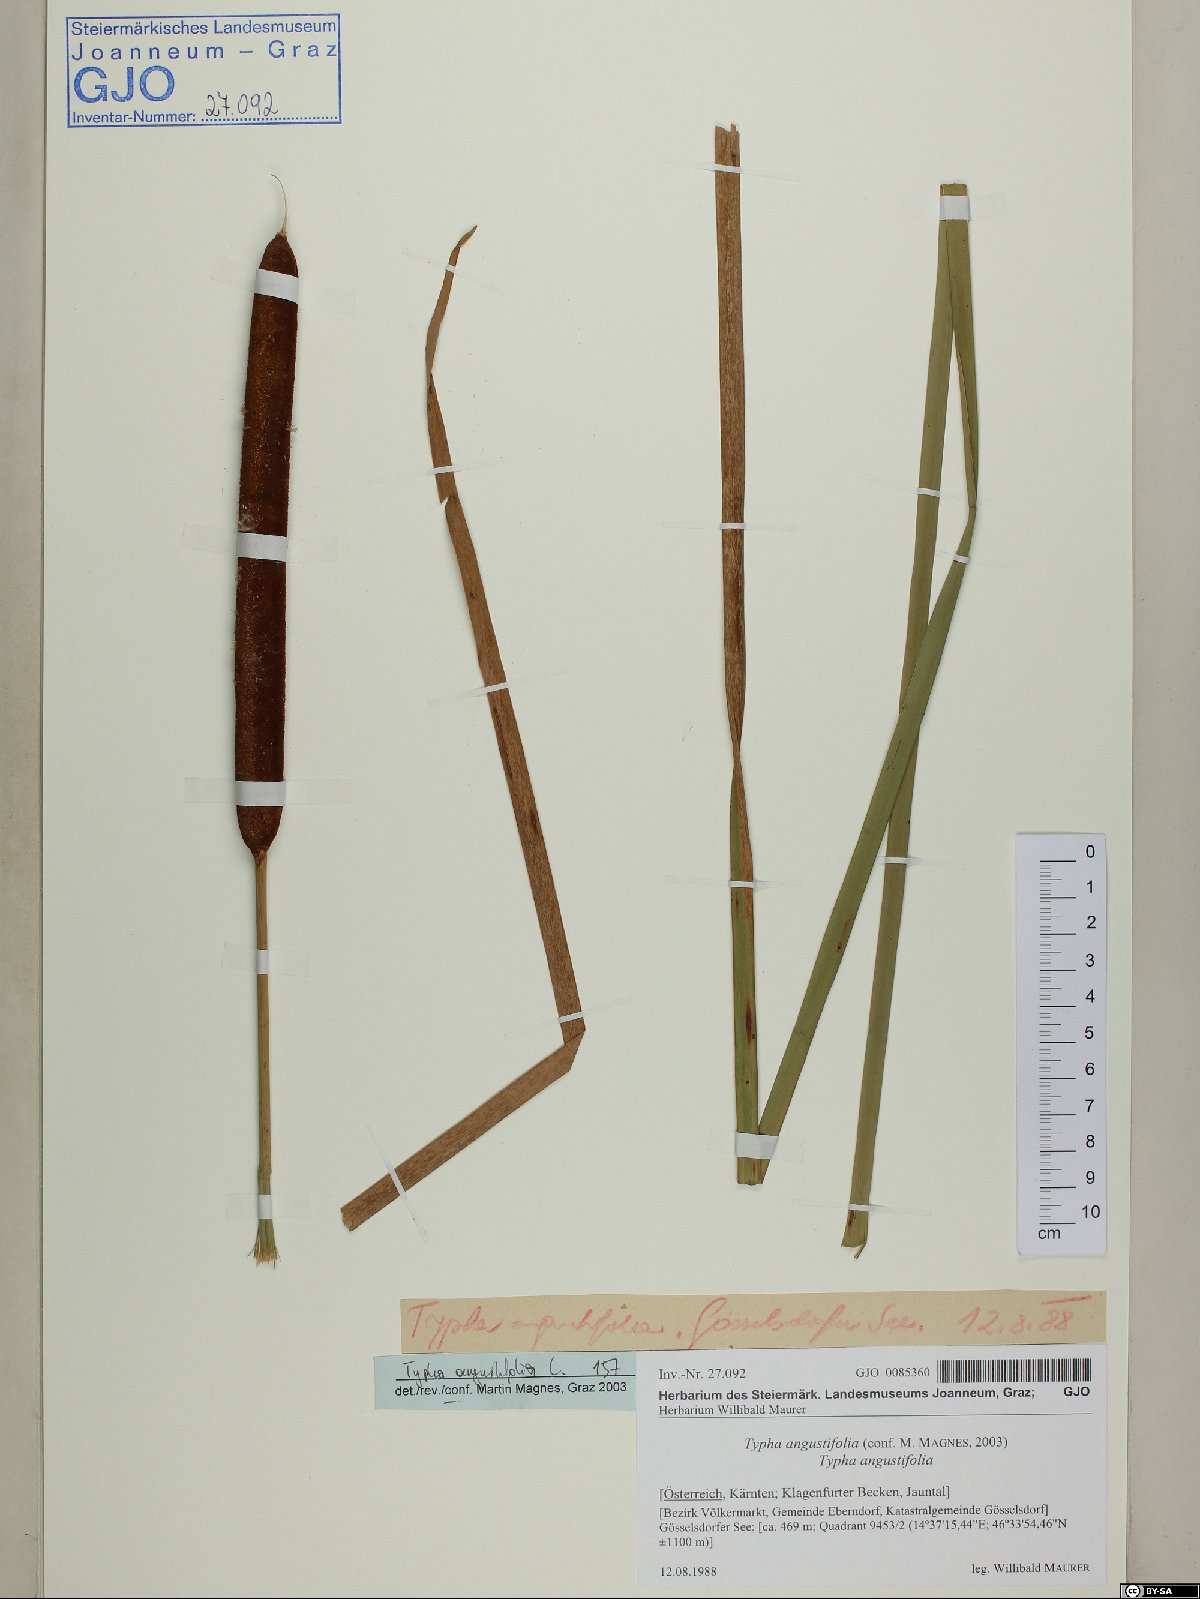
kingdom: Plantae
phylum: Tracheophyta
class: Liliopsida
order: Poales
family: Typhaceae
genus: Typha
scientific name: Typha angustifolia
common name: Lesser bulrush
